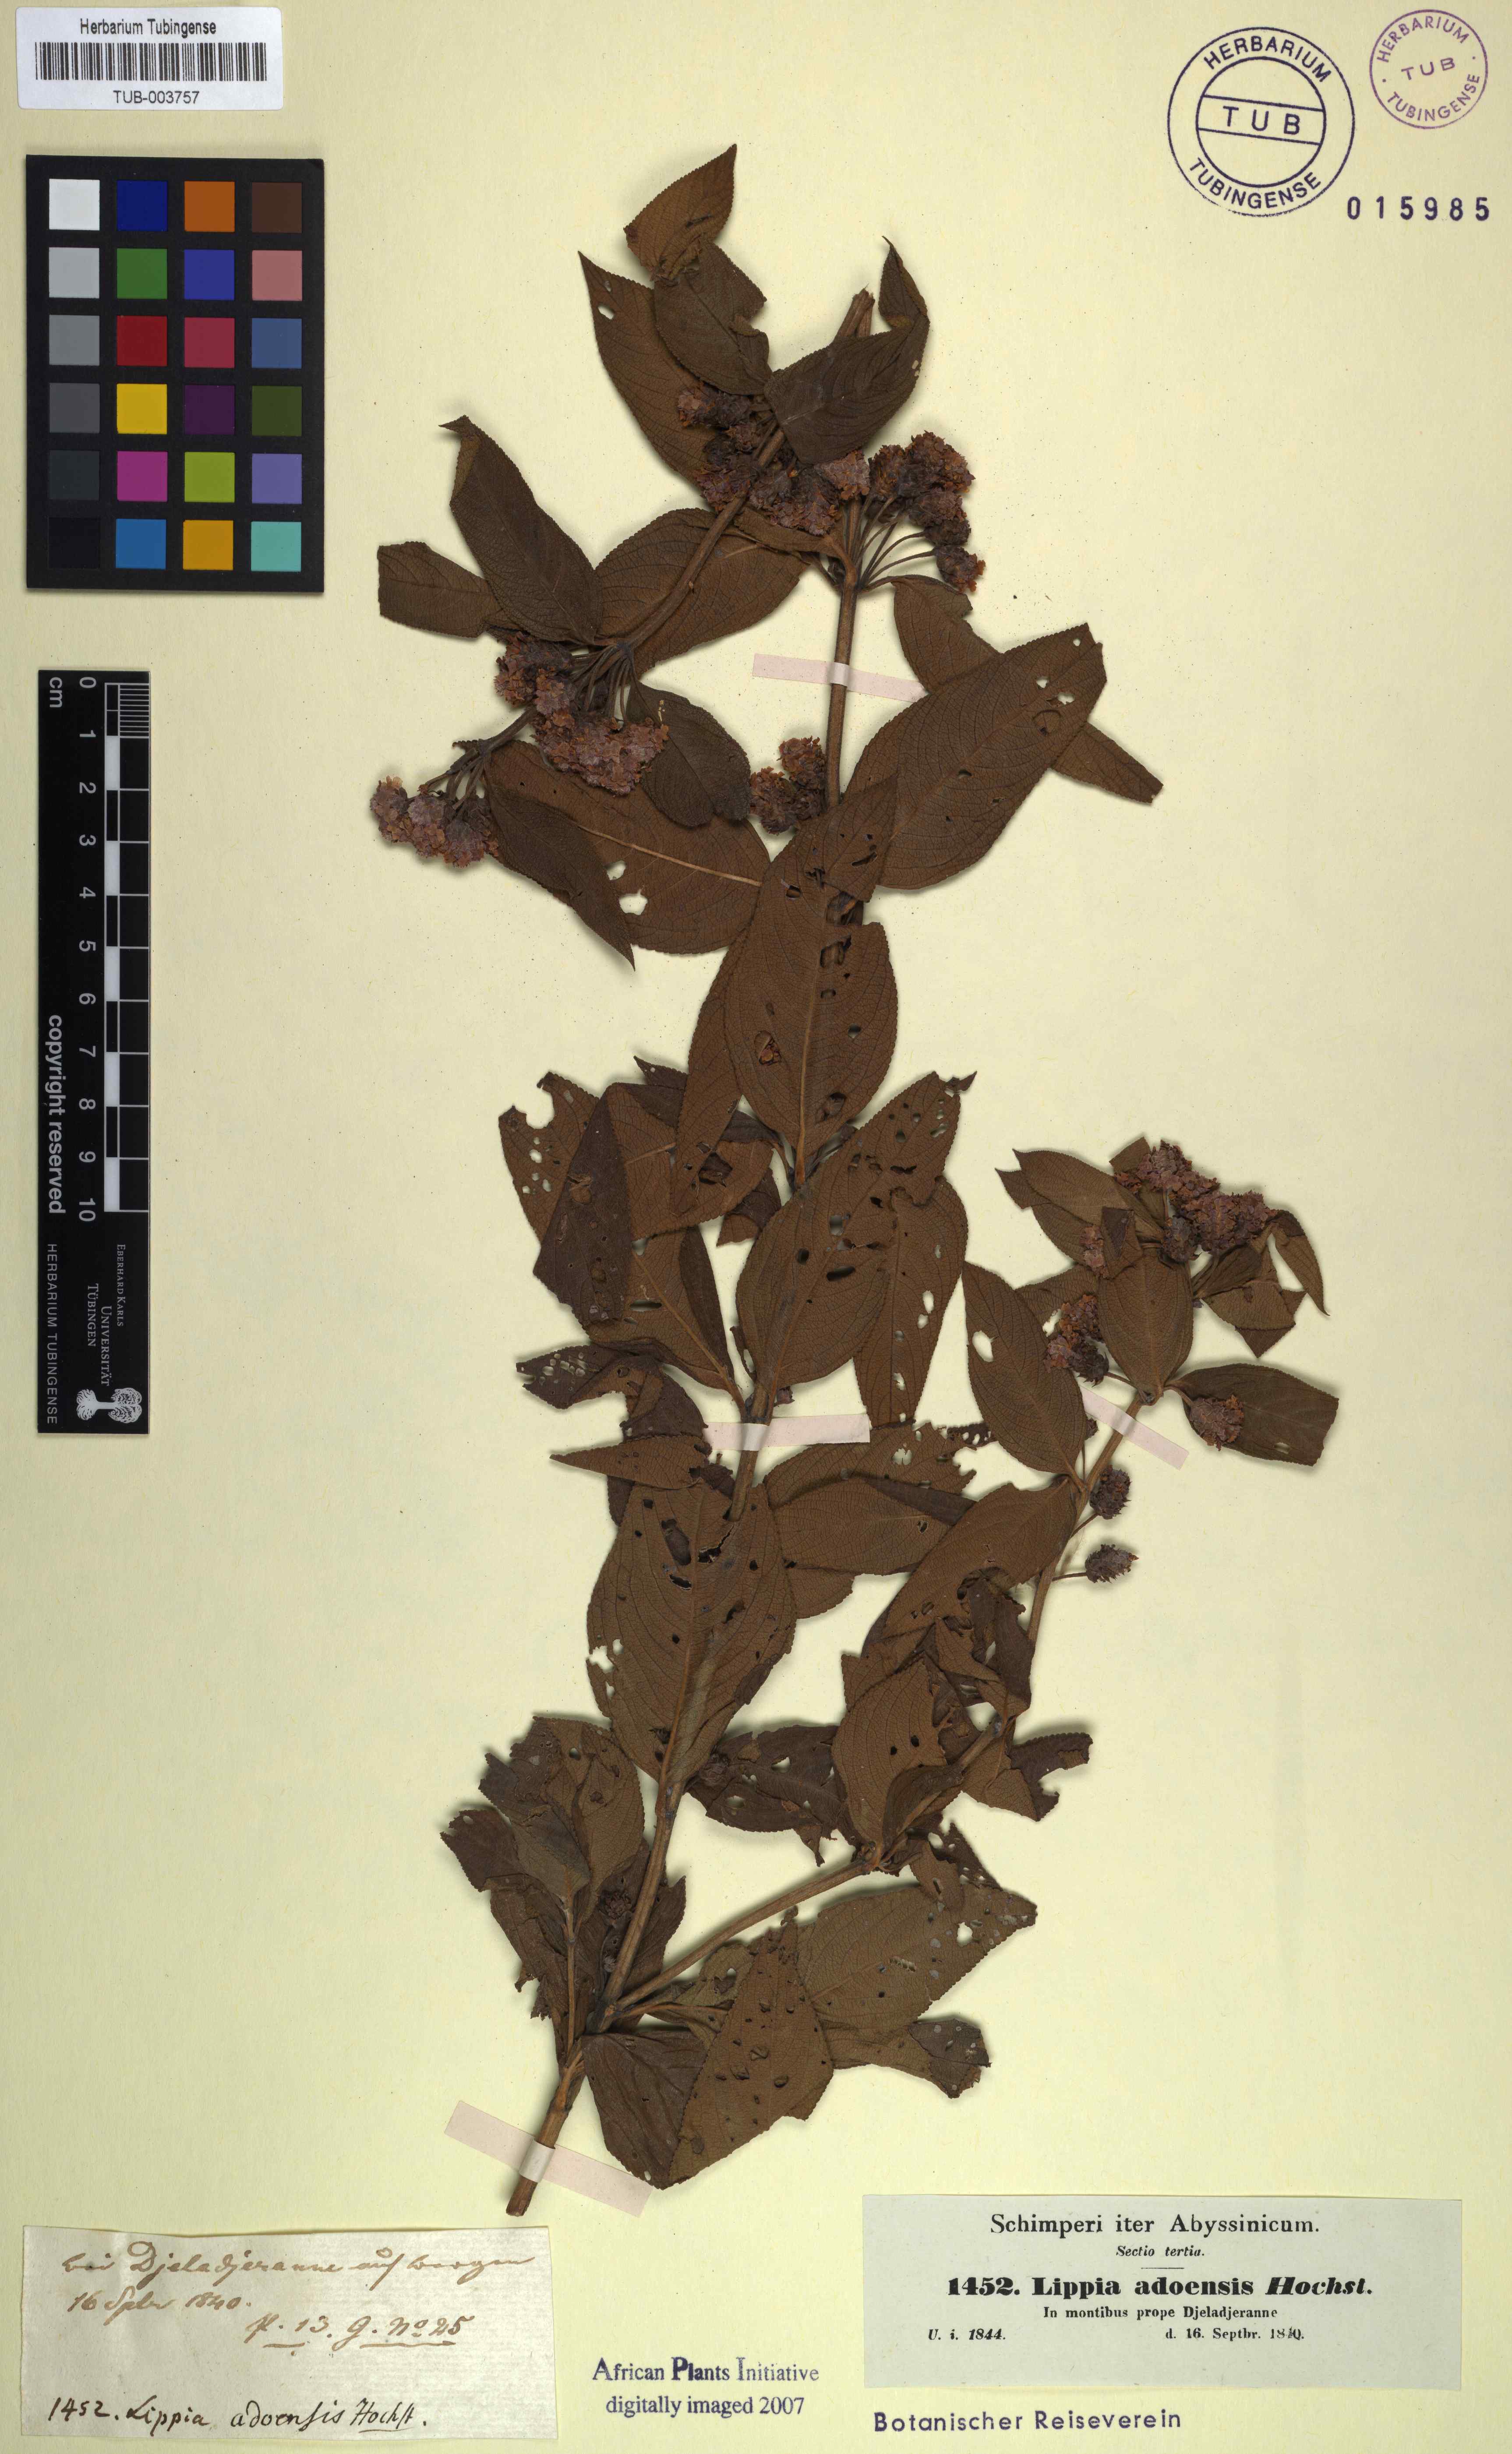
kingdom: Plantae
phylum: Tracheophyta
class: Magnoliopsida
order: Lamiales
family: Verbenaceae
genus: Lippia
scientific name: Lippia abyssinica
